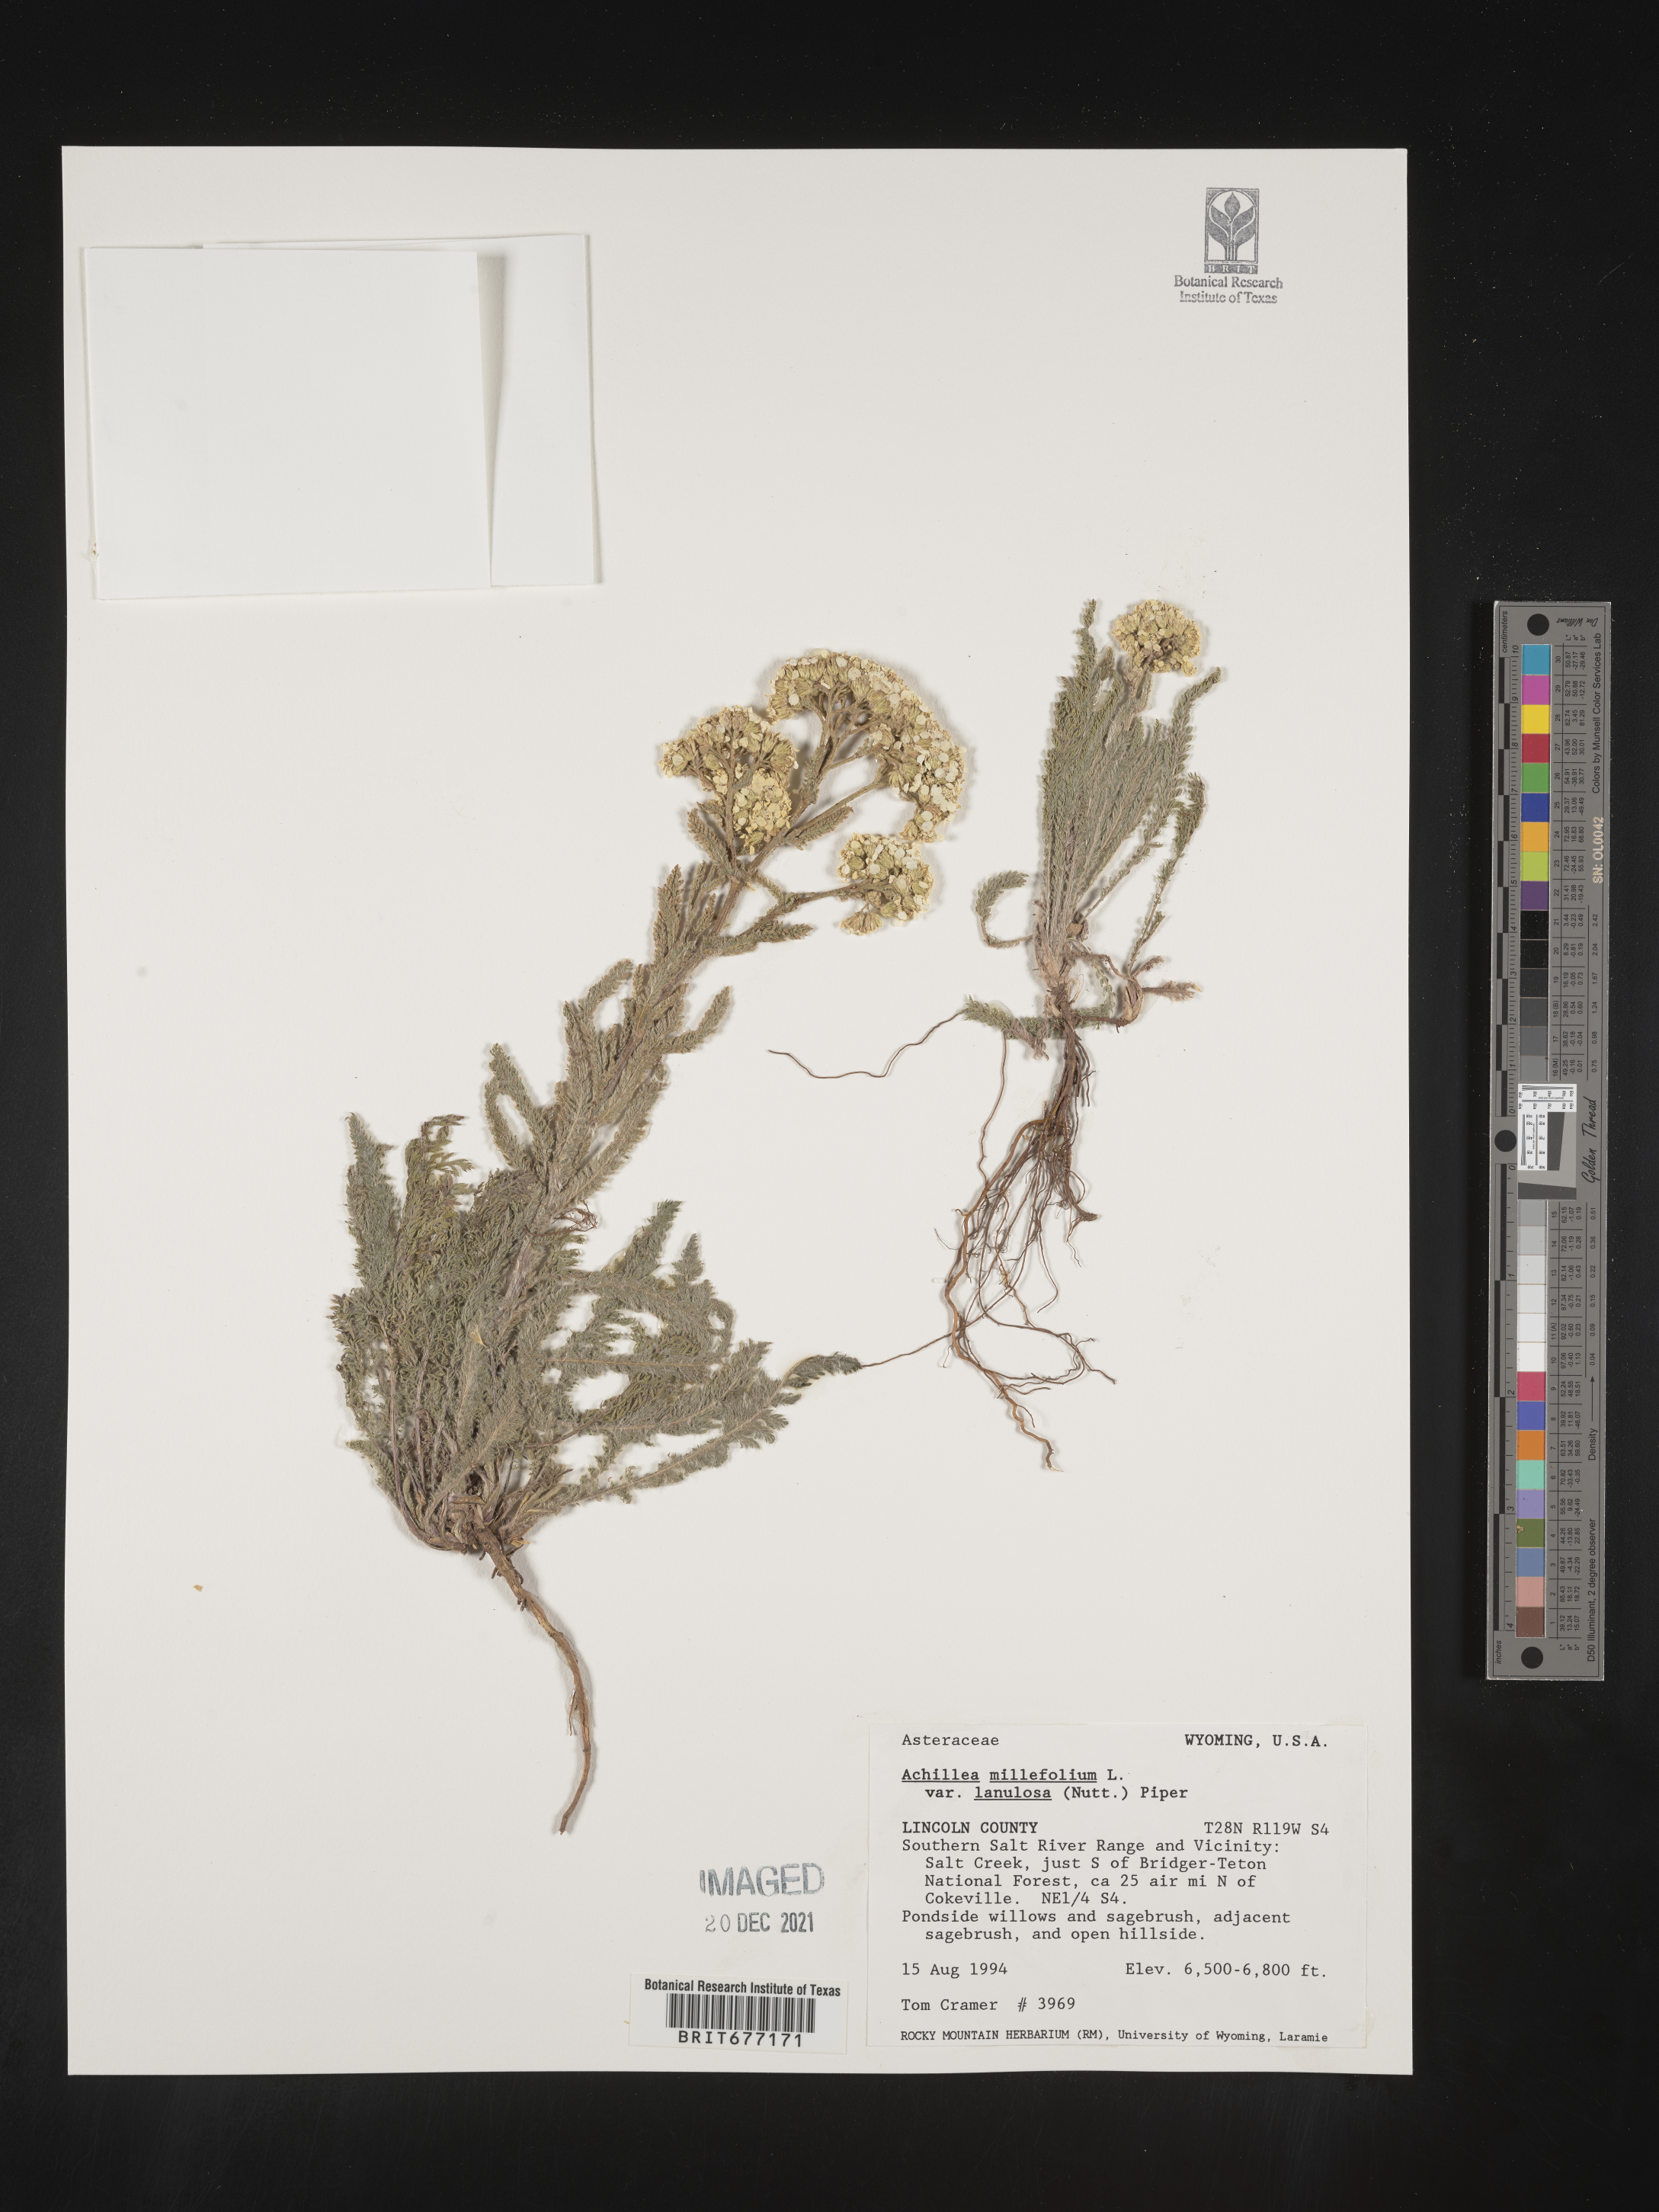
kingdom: Plantae
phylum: Tracheophyta
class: Magnoliopsida
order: Asterales
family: Asteraceae
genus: Achillea
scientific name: Achillea millefolium
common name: Yarrow
